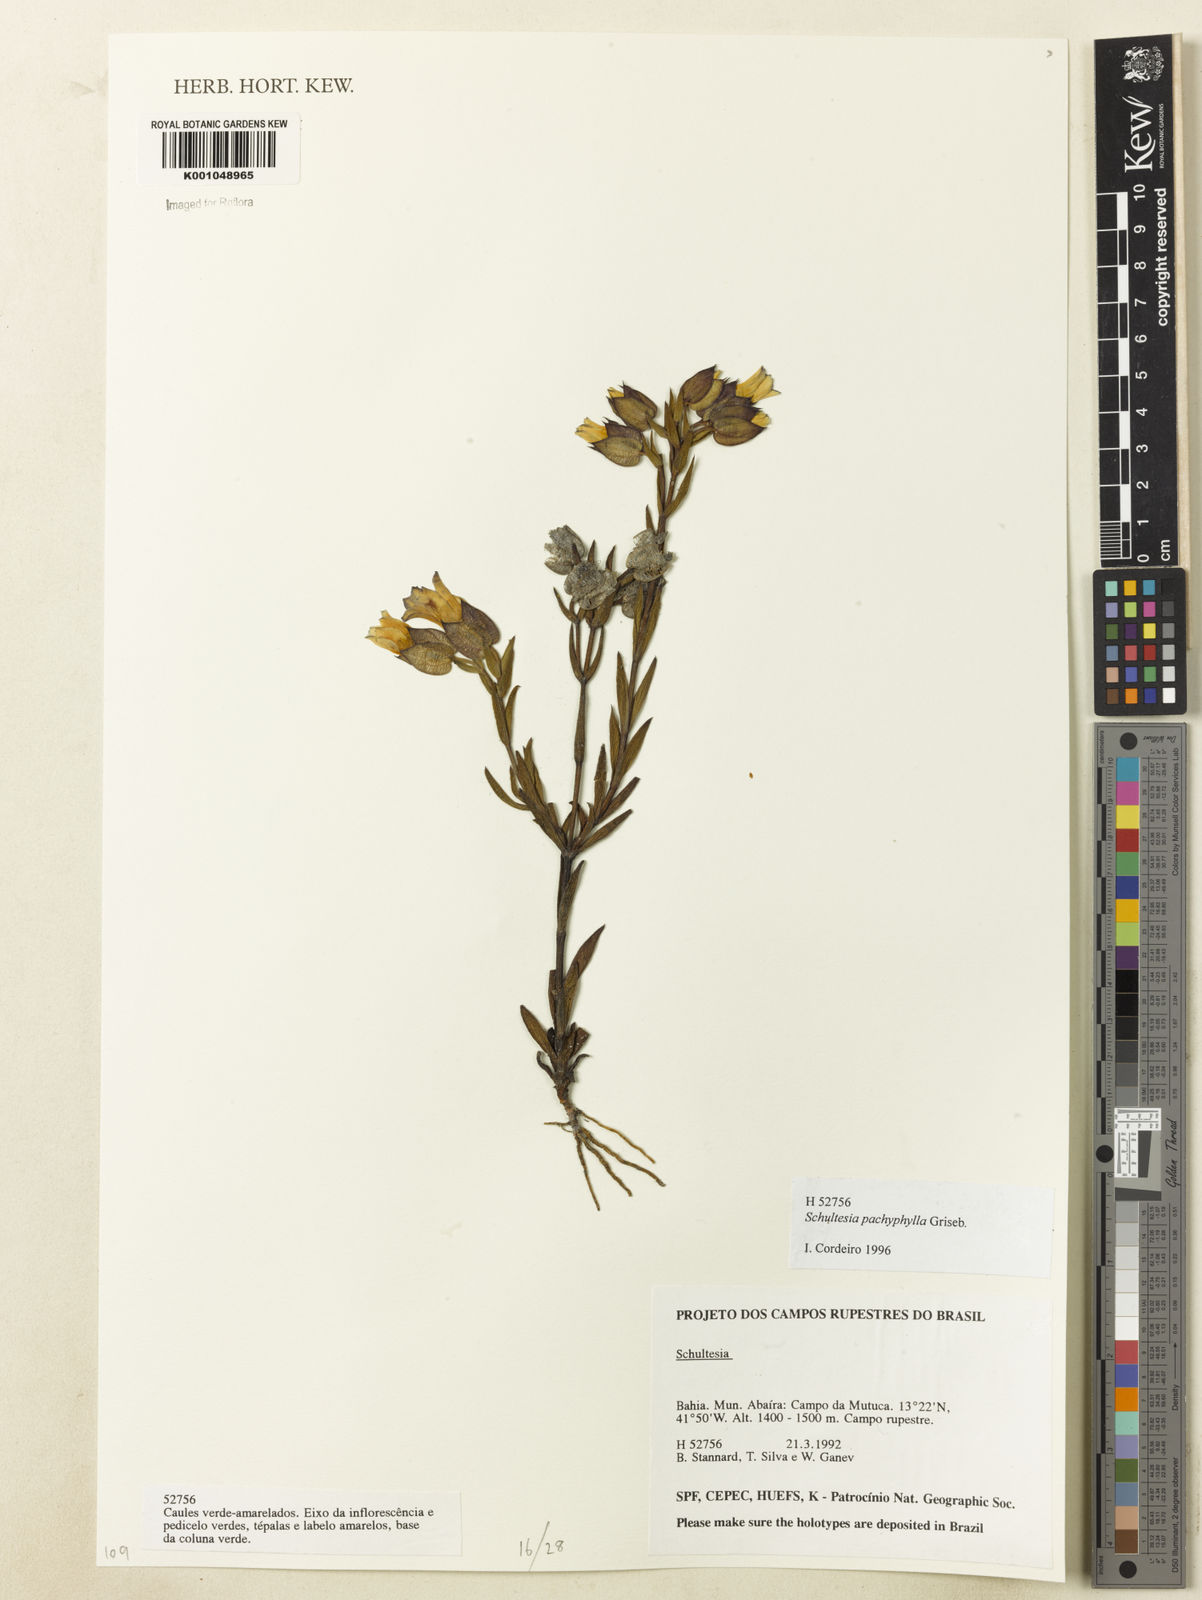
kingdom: Plantae
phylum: Tracheophyta
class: Magnoliopsida
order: Gentianales
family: Gentianaceae
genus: Schultesia
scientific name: Schultesia pachyphylla
